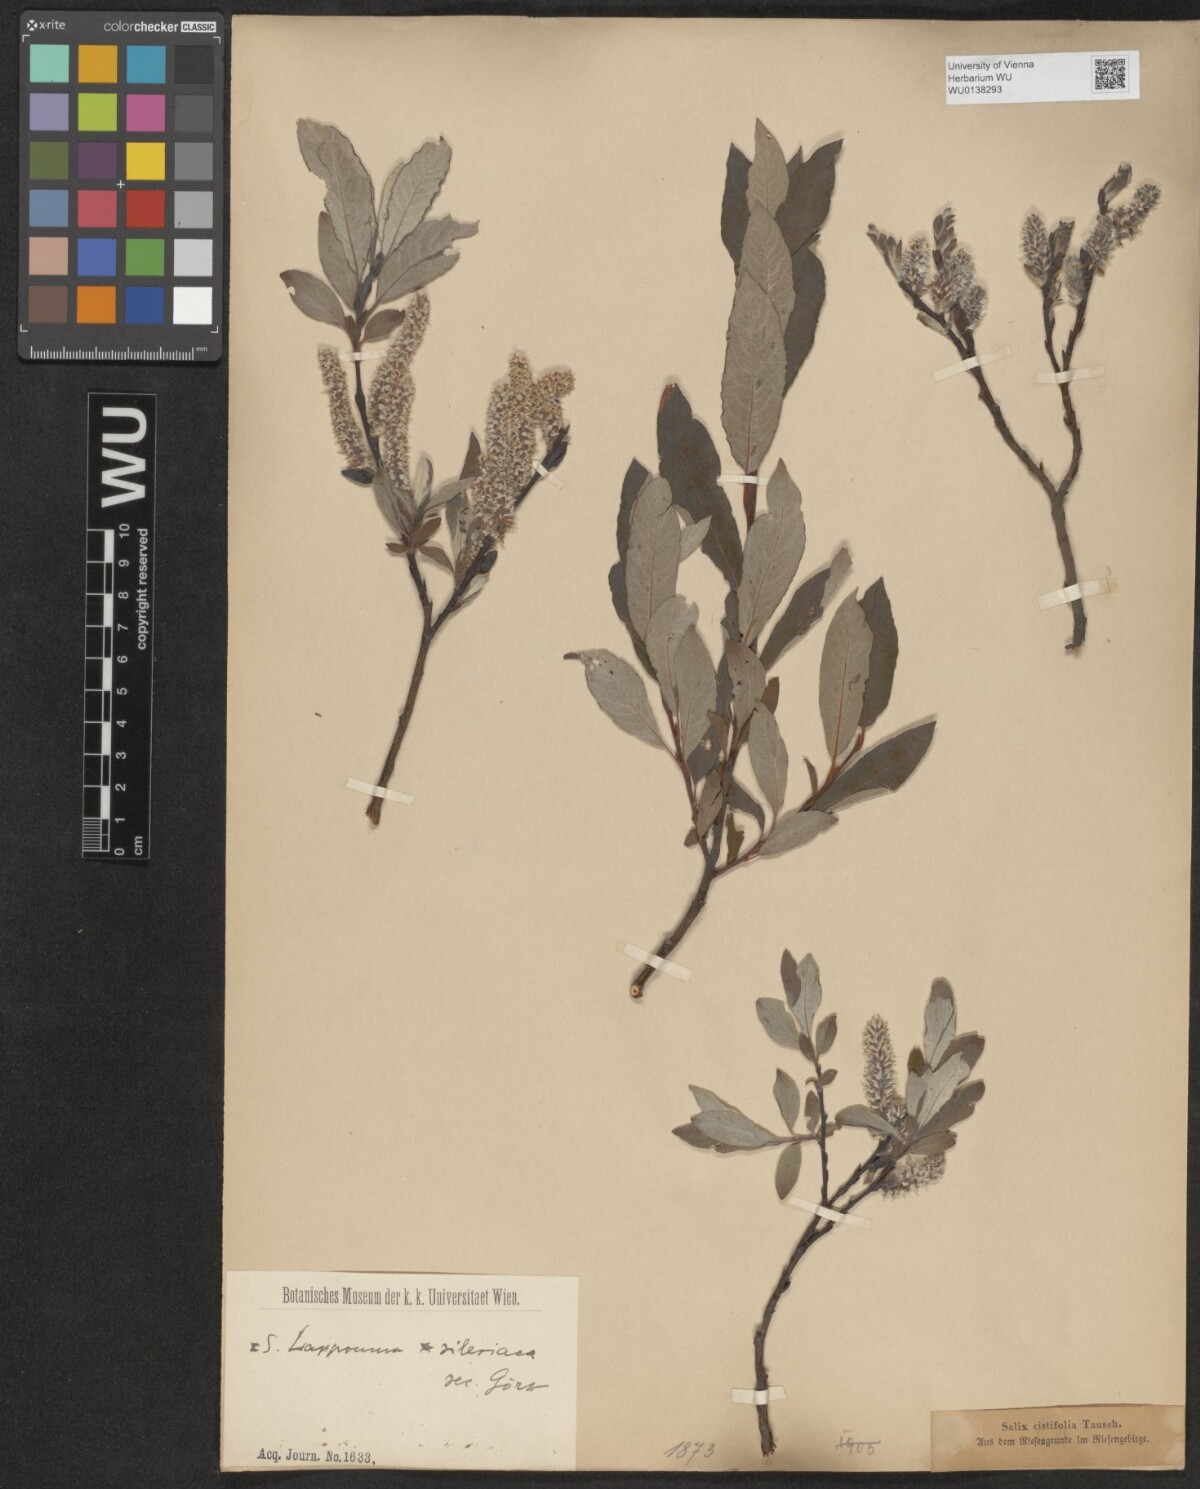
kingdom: Plantae
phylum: Tracheophyta
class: Magnoliopsida
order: Malpighiales
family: Salicaceae
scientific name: Salicaceae
